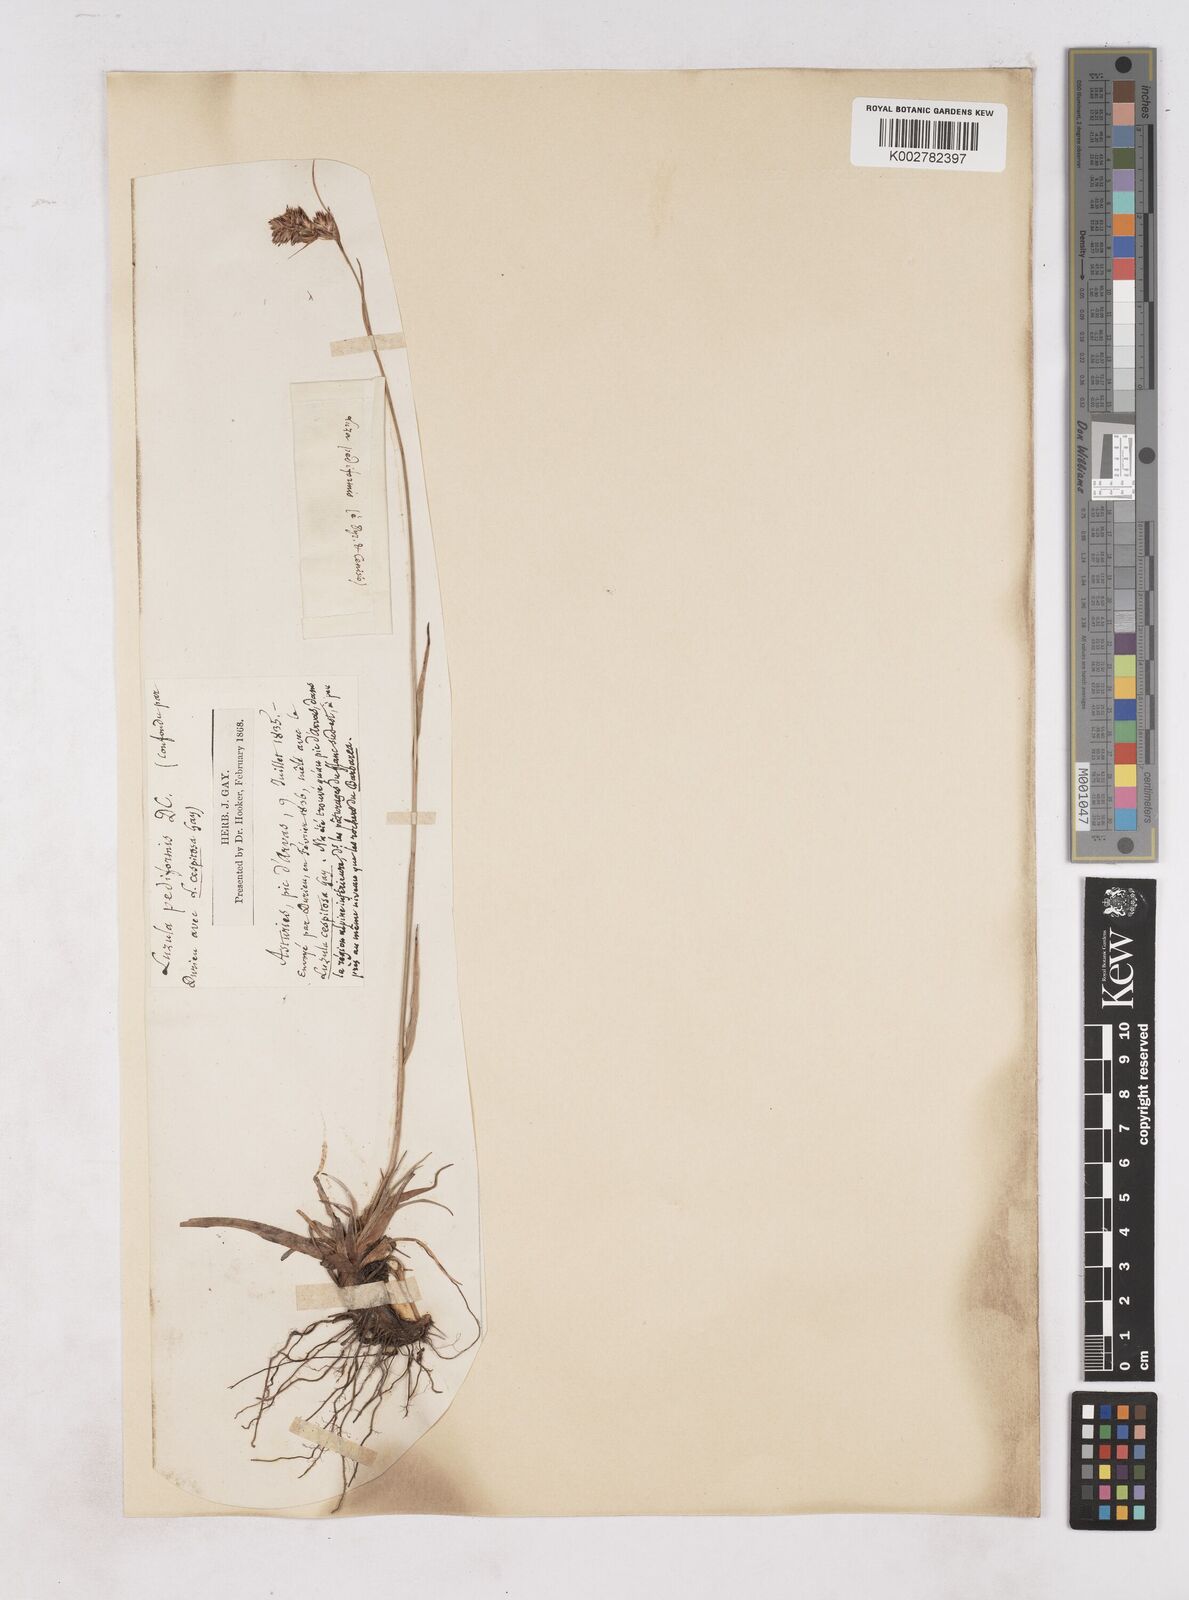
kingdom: Plantae
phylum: Tracheophyta
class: Liliopsida
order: Poales
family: Juncaceae
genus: Luzula
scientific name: Luzula pediformis
